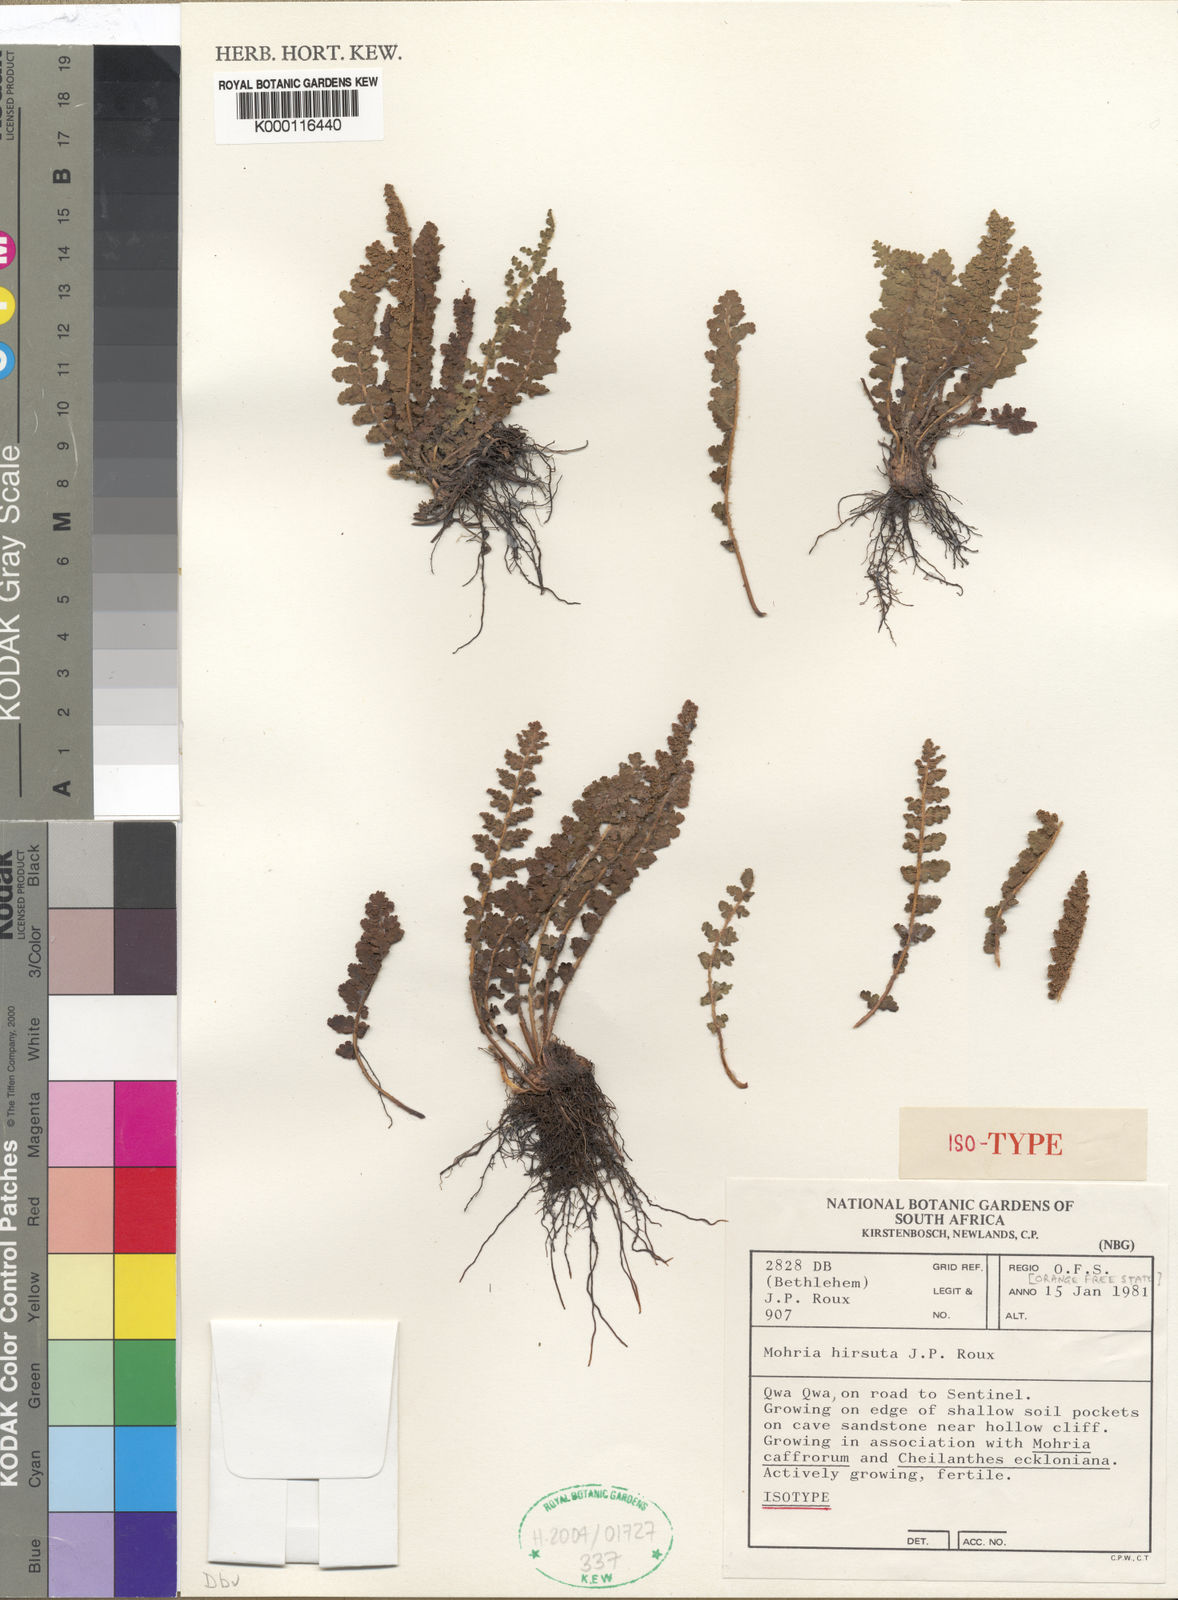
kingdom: Plantae
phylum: Tracheophyta
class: Polypodiopsida
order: Schizaeales
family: Anemiaceae
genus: Anemia
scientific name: Anemia marginalis
